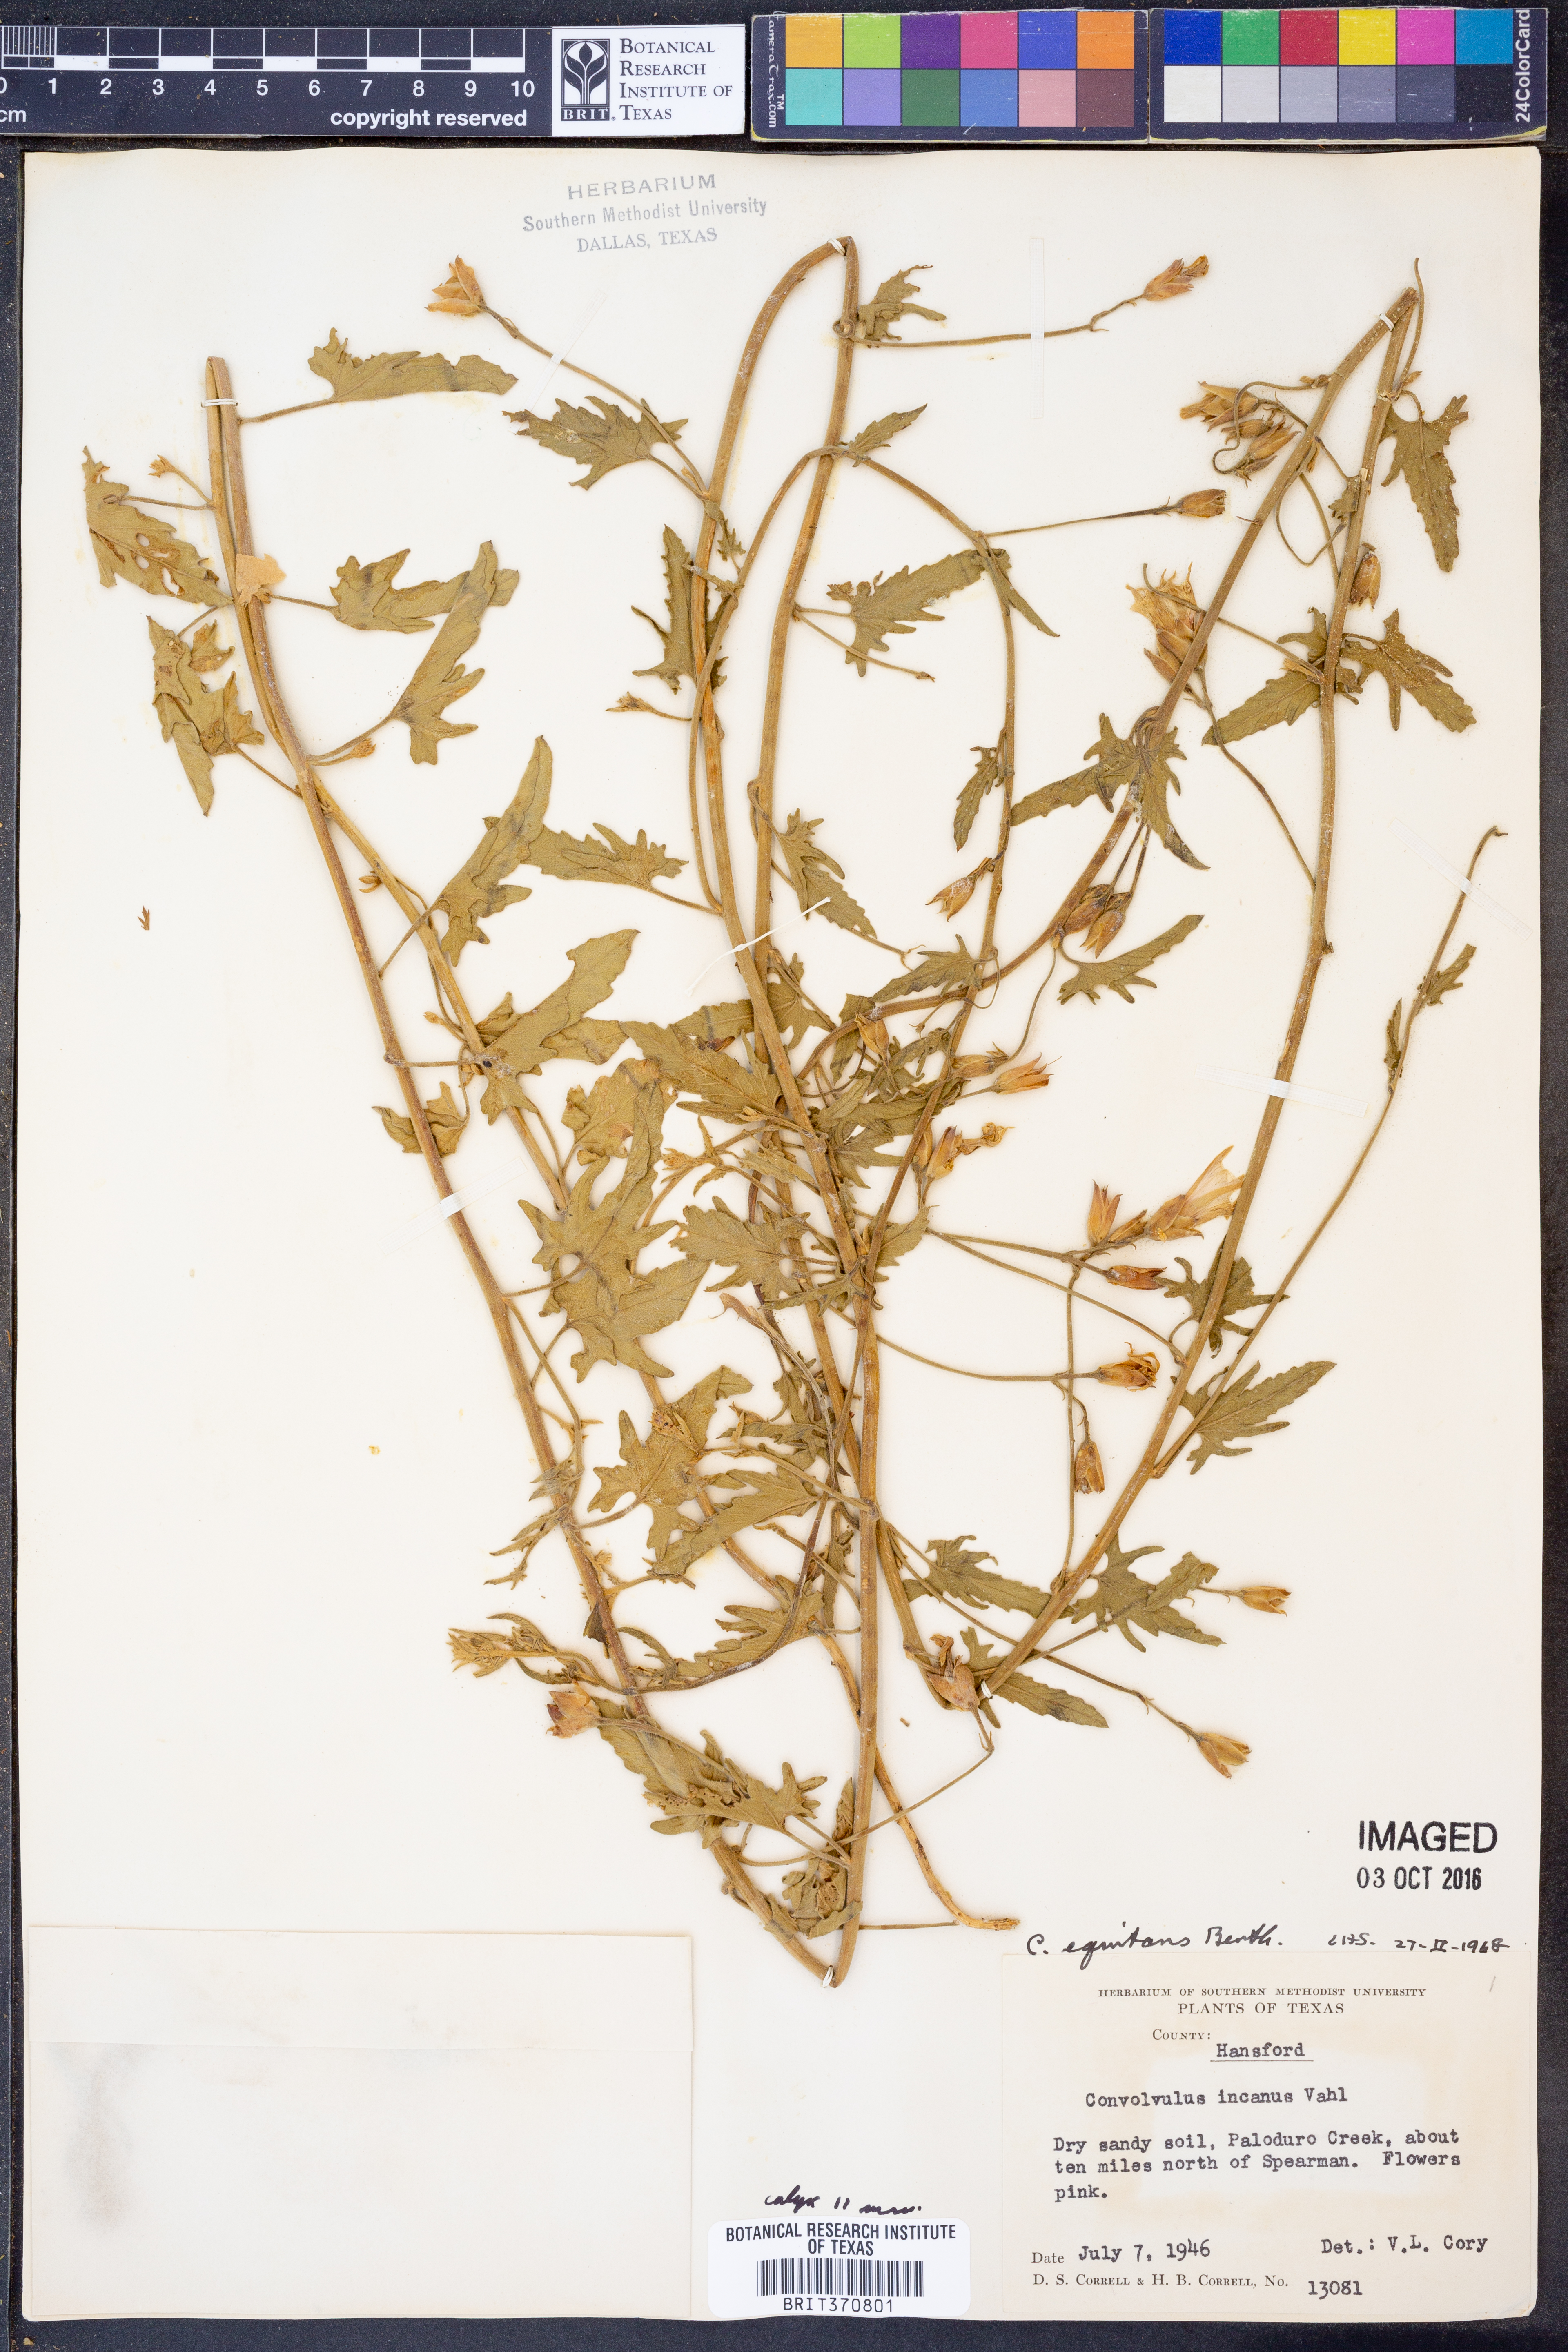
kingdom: Plantae
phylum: Tracheophyta
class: Magnoliopsida
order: Solanales
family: Convolvulaceae
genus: Convolvulus
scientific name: Convolvulus equitans
